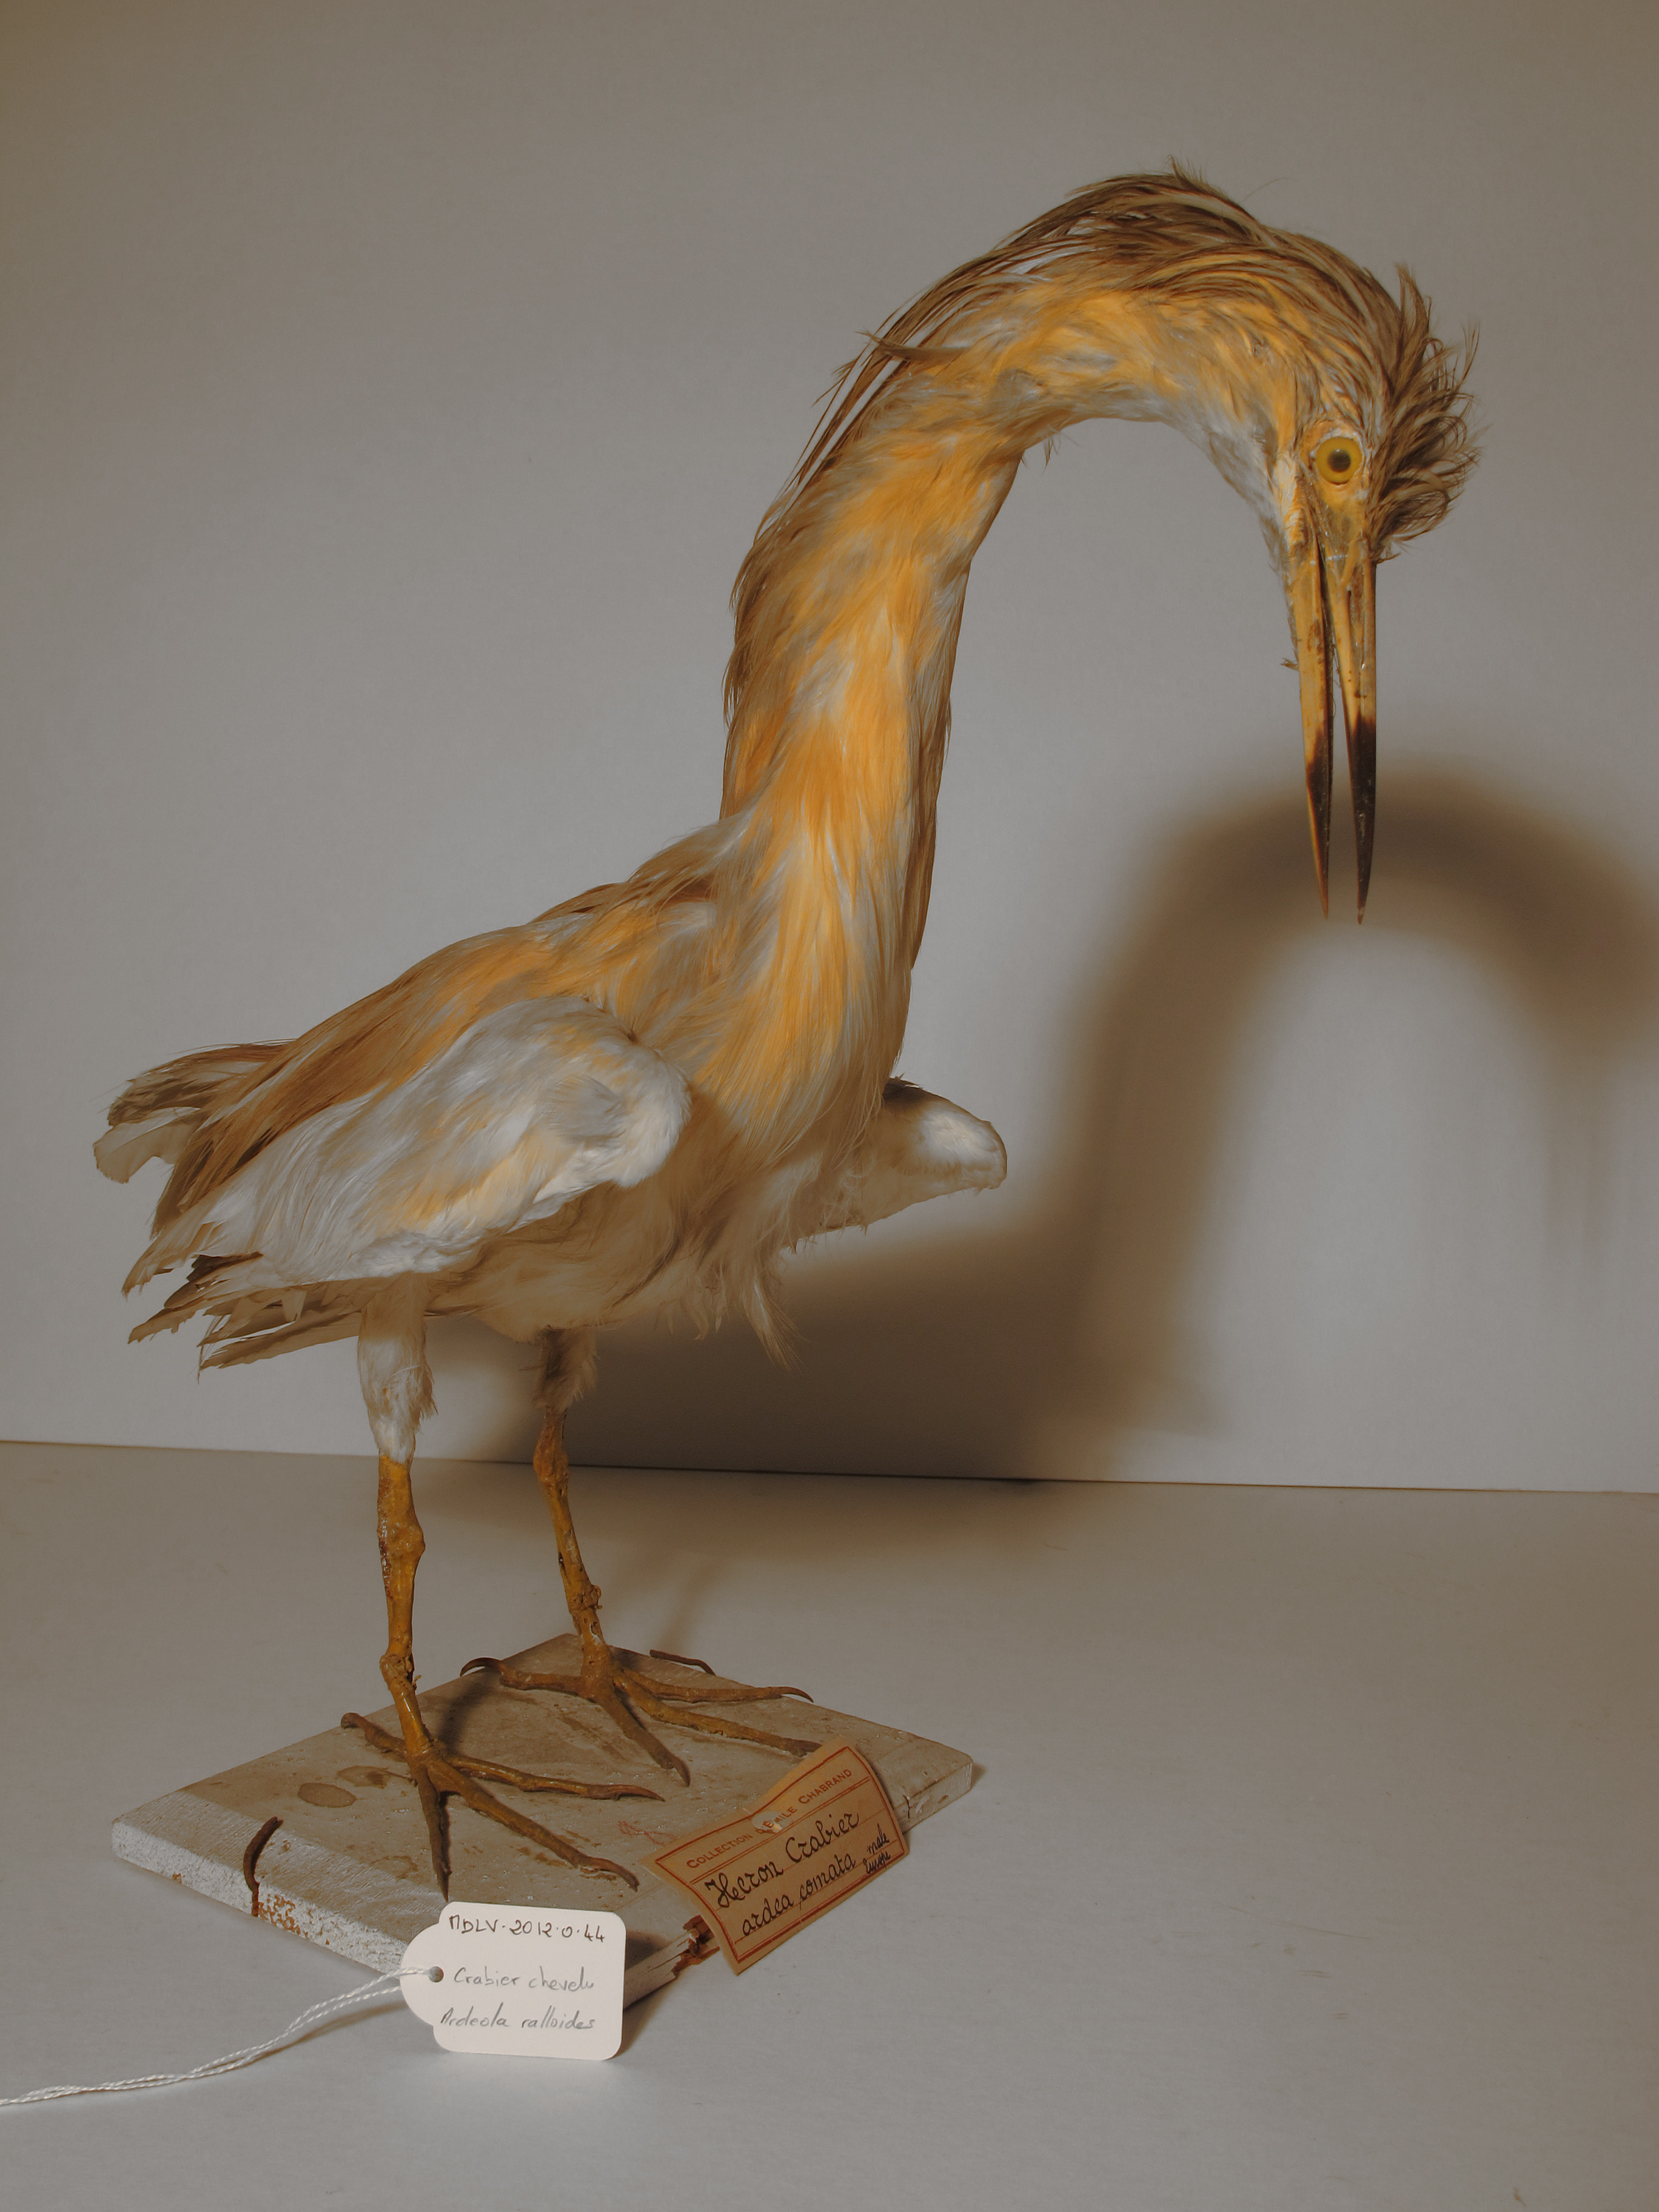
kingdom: Animalia
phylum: Chordata
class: Aves
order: Pelecaniformes
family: Ardeidae
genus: Ardeola
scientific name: Ardeola ralloides
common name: Squacco Heron
